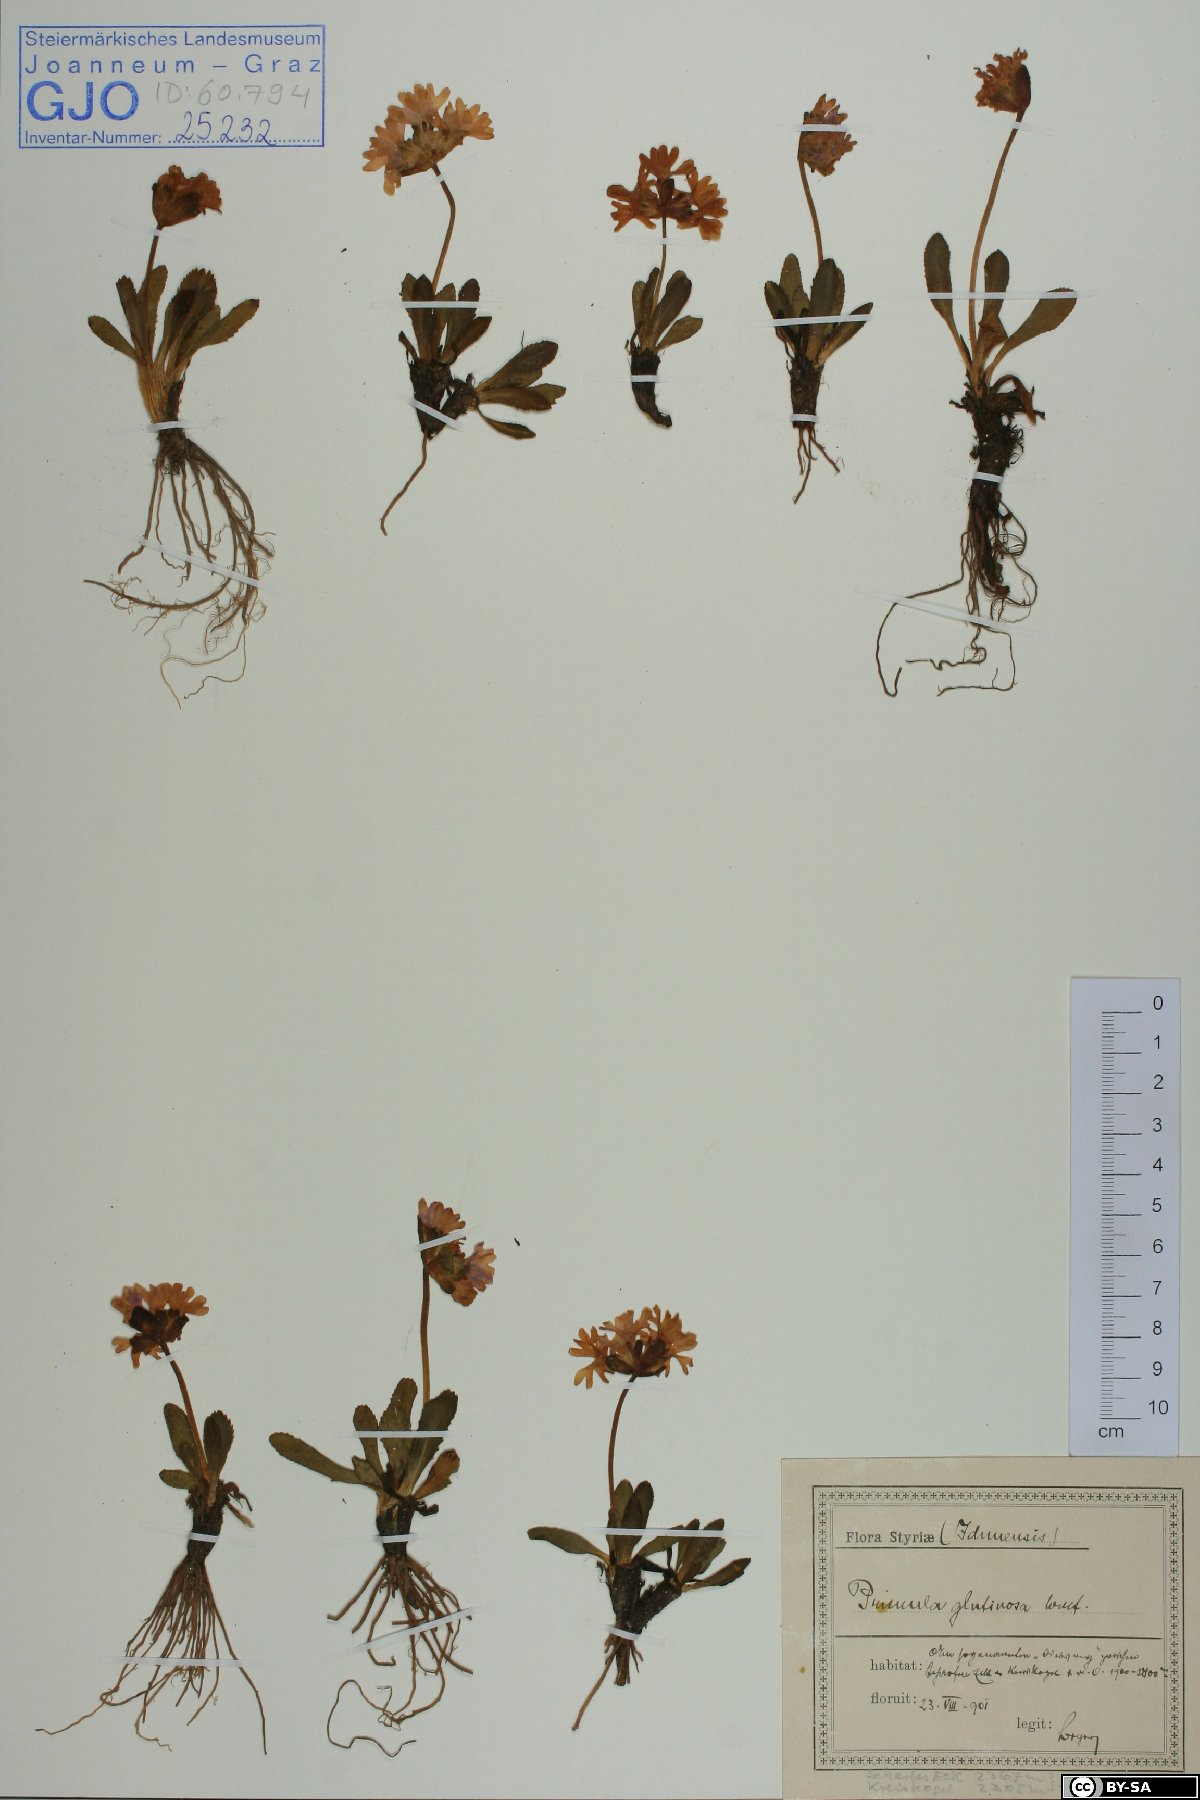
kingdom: Plantae
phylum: Tracheophyta
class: Magnoliopsida
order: Ericales
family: Primulaceae
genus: Primula
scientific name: Primula glutinosa
